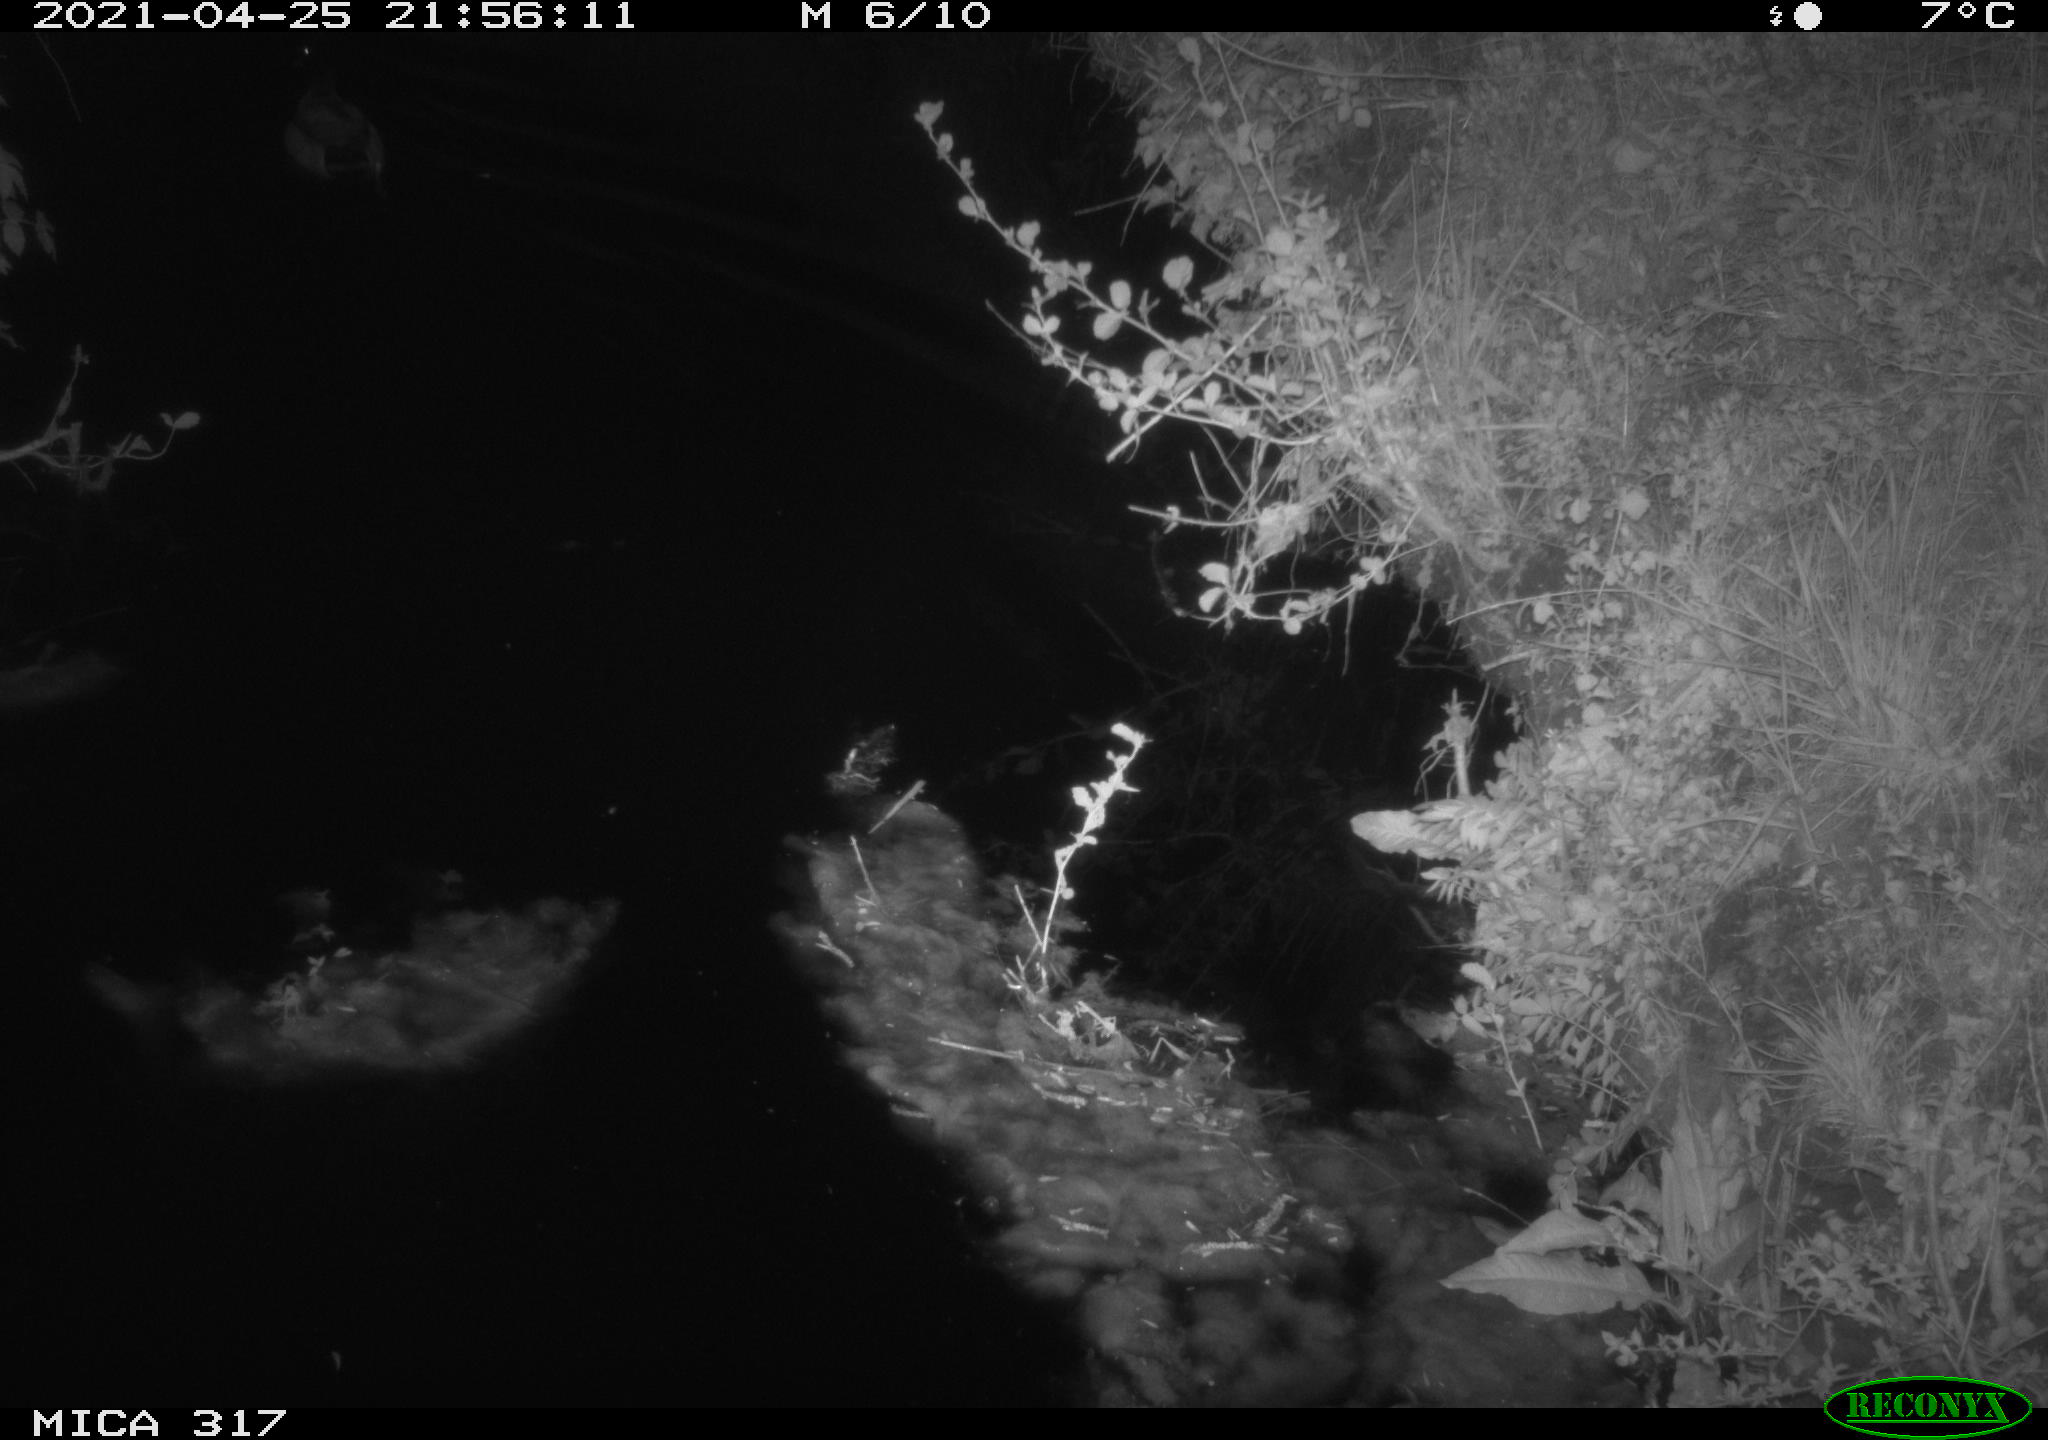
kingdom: Animalia
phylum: Chordata
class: Aves
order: Anseriformes
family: Anatidae
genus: Anas
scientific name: Anas
